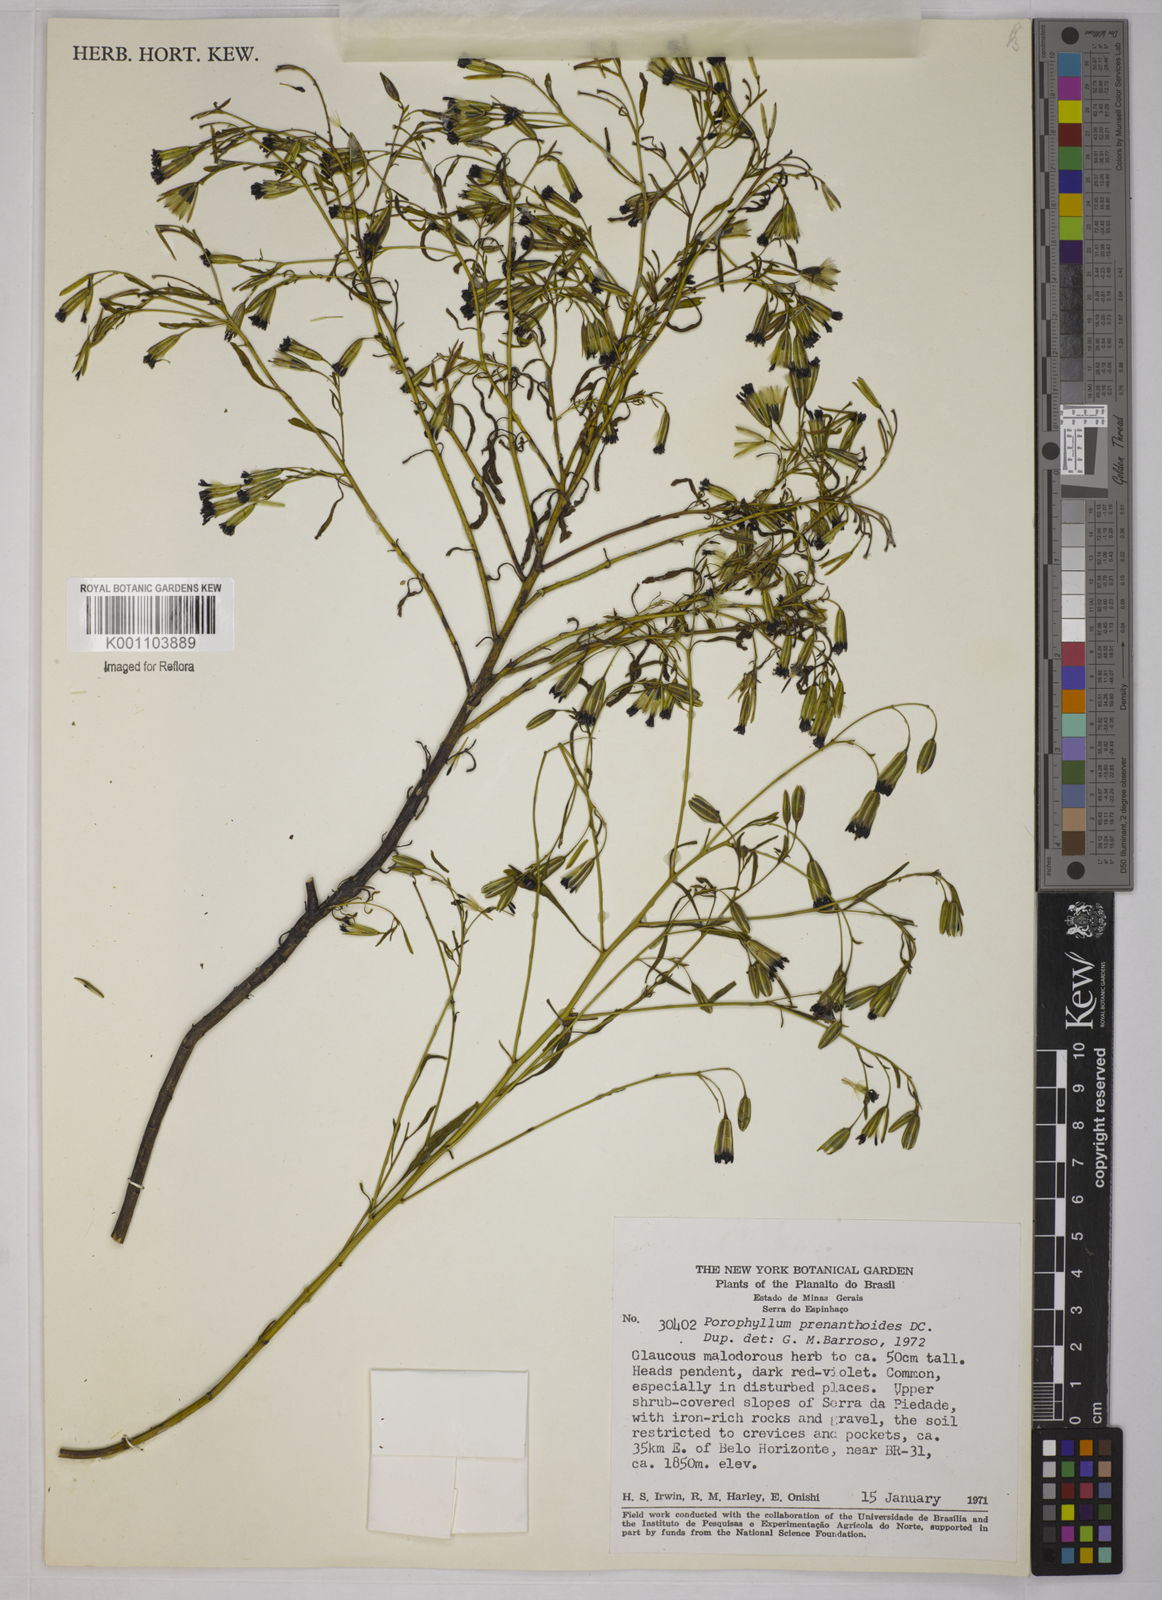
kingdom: Plantae
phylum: Tracheophyta
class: Magnoliopsida
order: Asterales
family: Asteraceae
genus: Porophyllum
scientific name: Porophyllum obscurum
